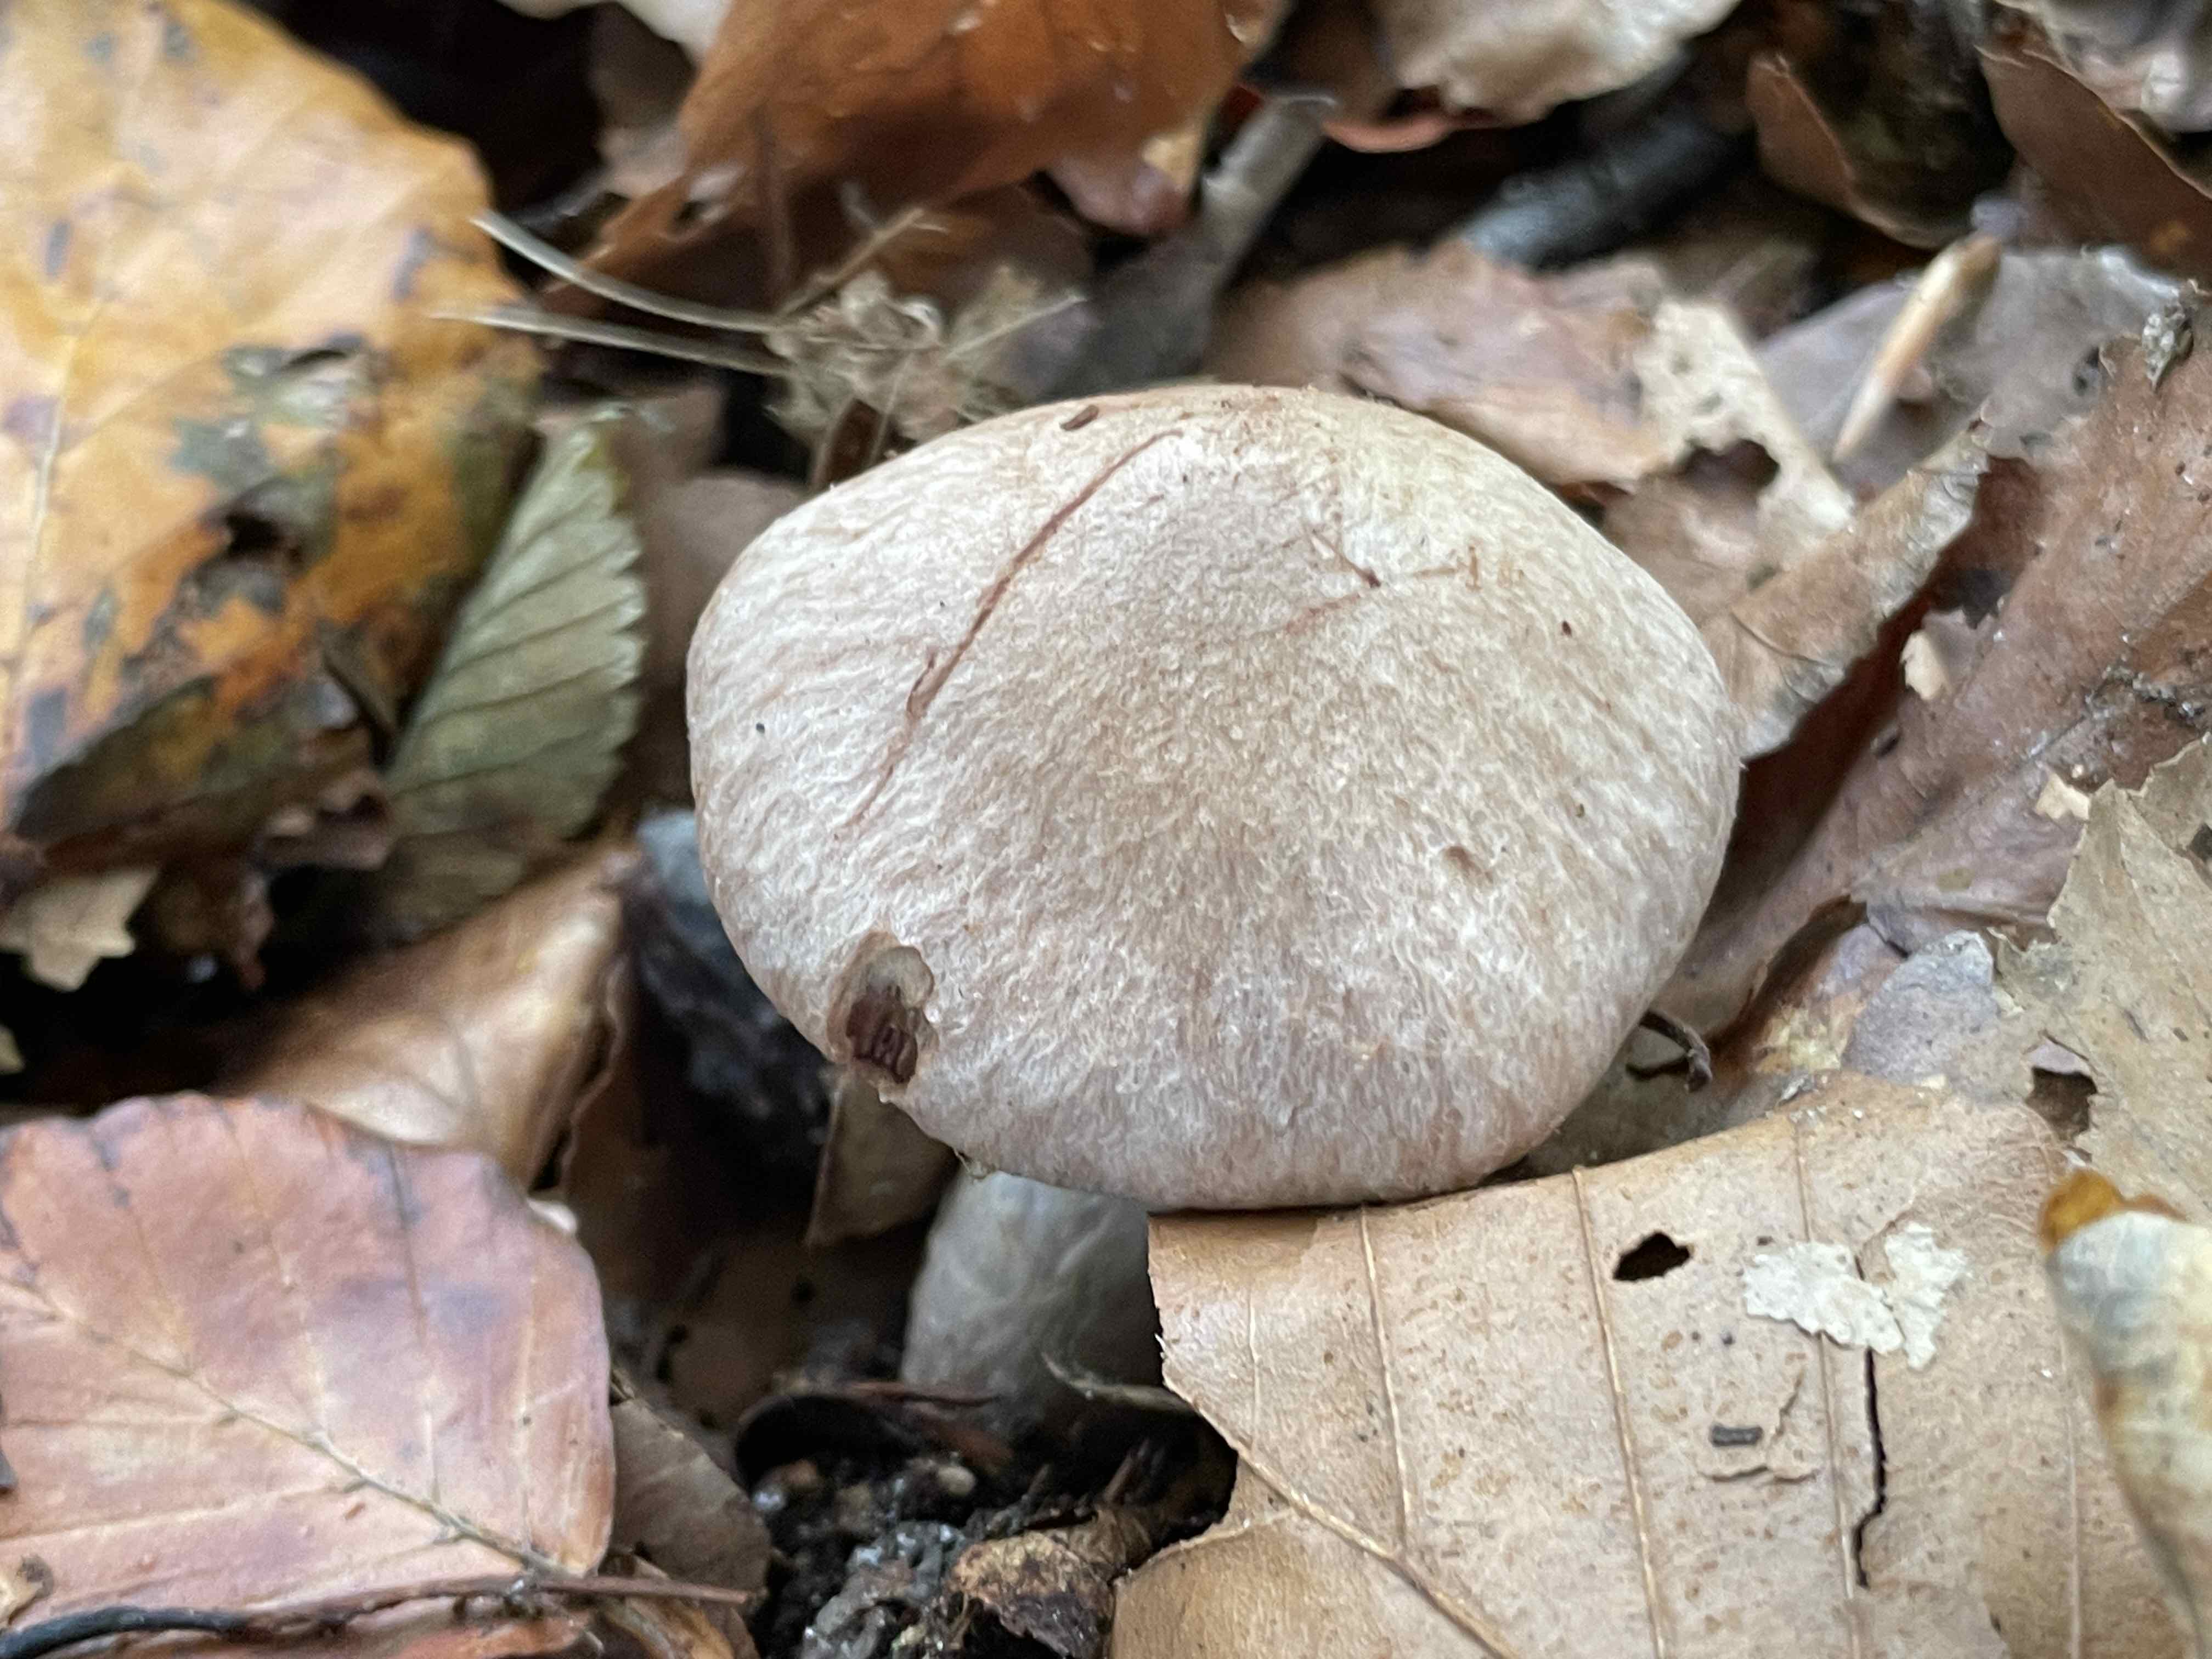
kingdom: Fungi
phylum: Basidiomycota
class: Agaricomycetes
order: Agaricales
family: Cortinariaceae
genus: Cortinarius
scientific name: Cortinarius torvus
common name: champignonagtig slørhat
